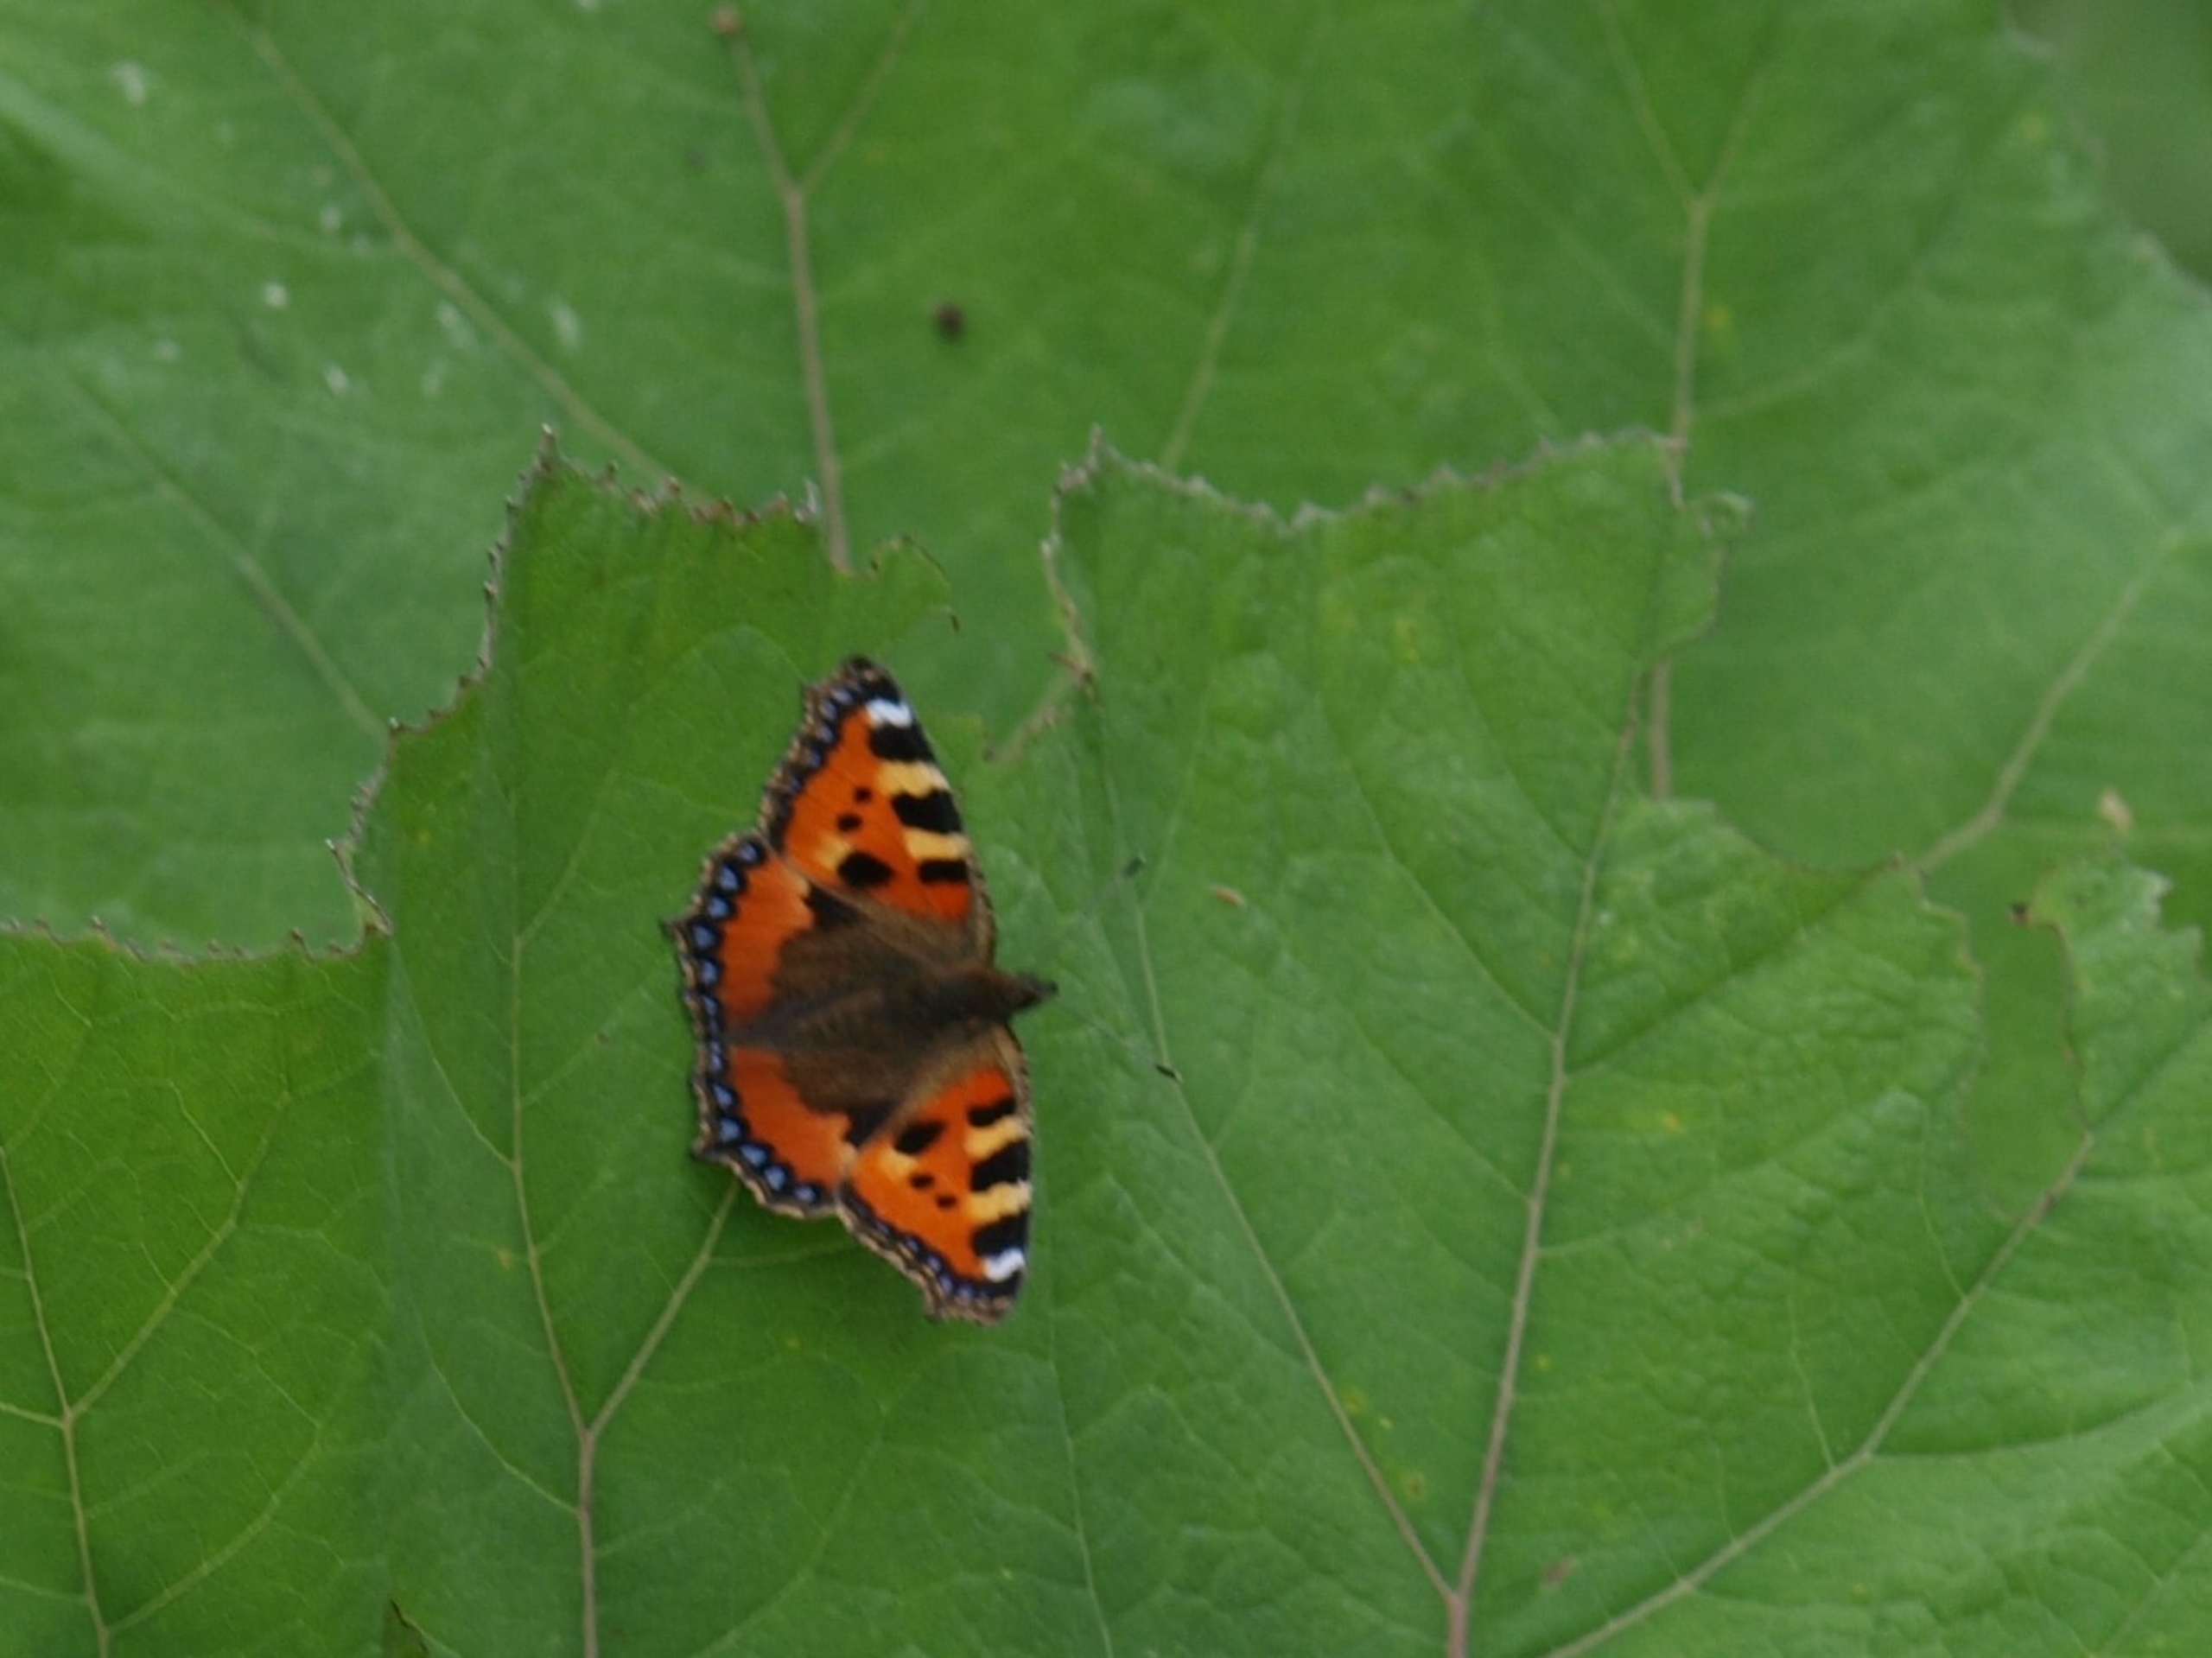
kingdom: Animalia
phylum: Arthropoda
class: Insecta
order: Lepidoptera
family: Nymphalidae
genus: Aglais
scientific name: Aglais urticae
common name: Nældens takvinge
